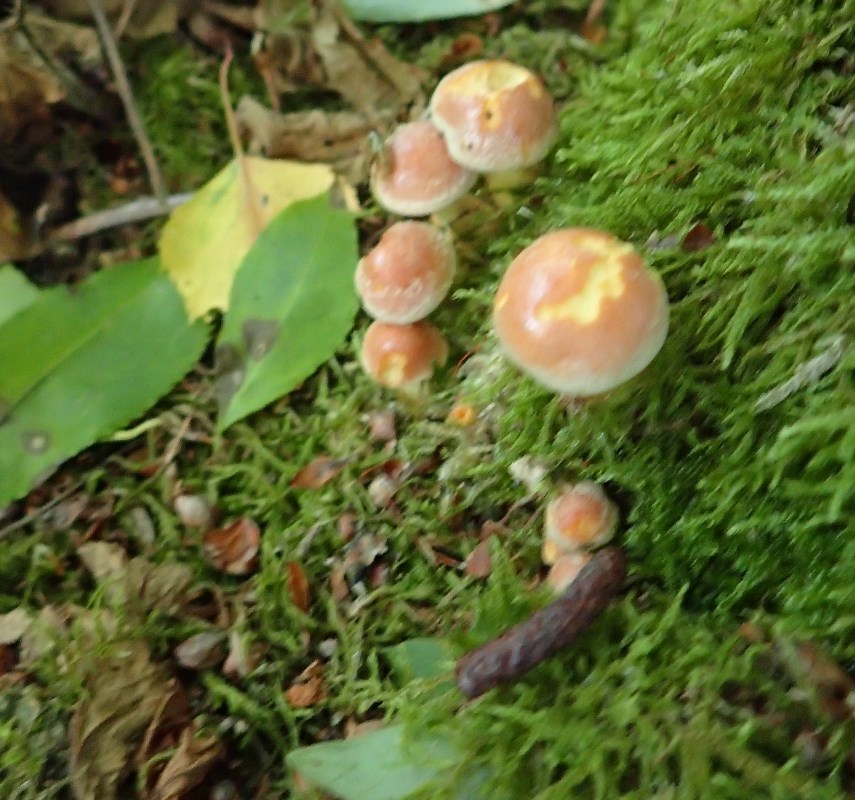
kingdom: Fungi
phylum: Basidiomycota
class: Agaricomycetes
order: Agaricales
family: Strophariaceae
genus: Hypholoma
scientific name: Hypholoma lateritium
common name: teglrød svovlhat
